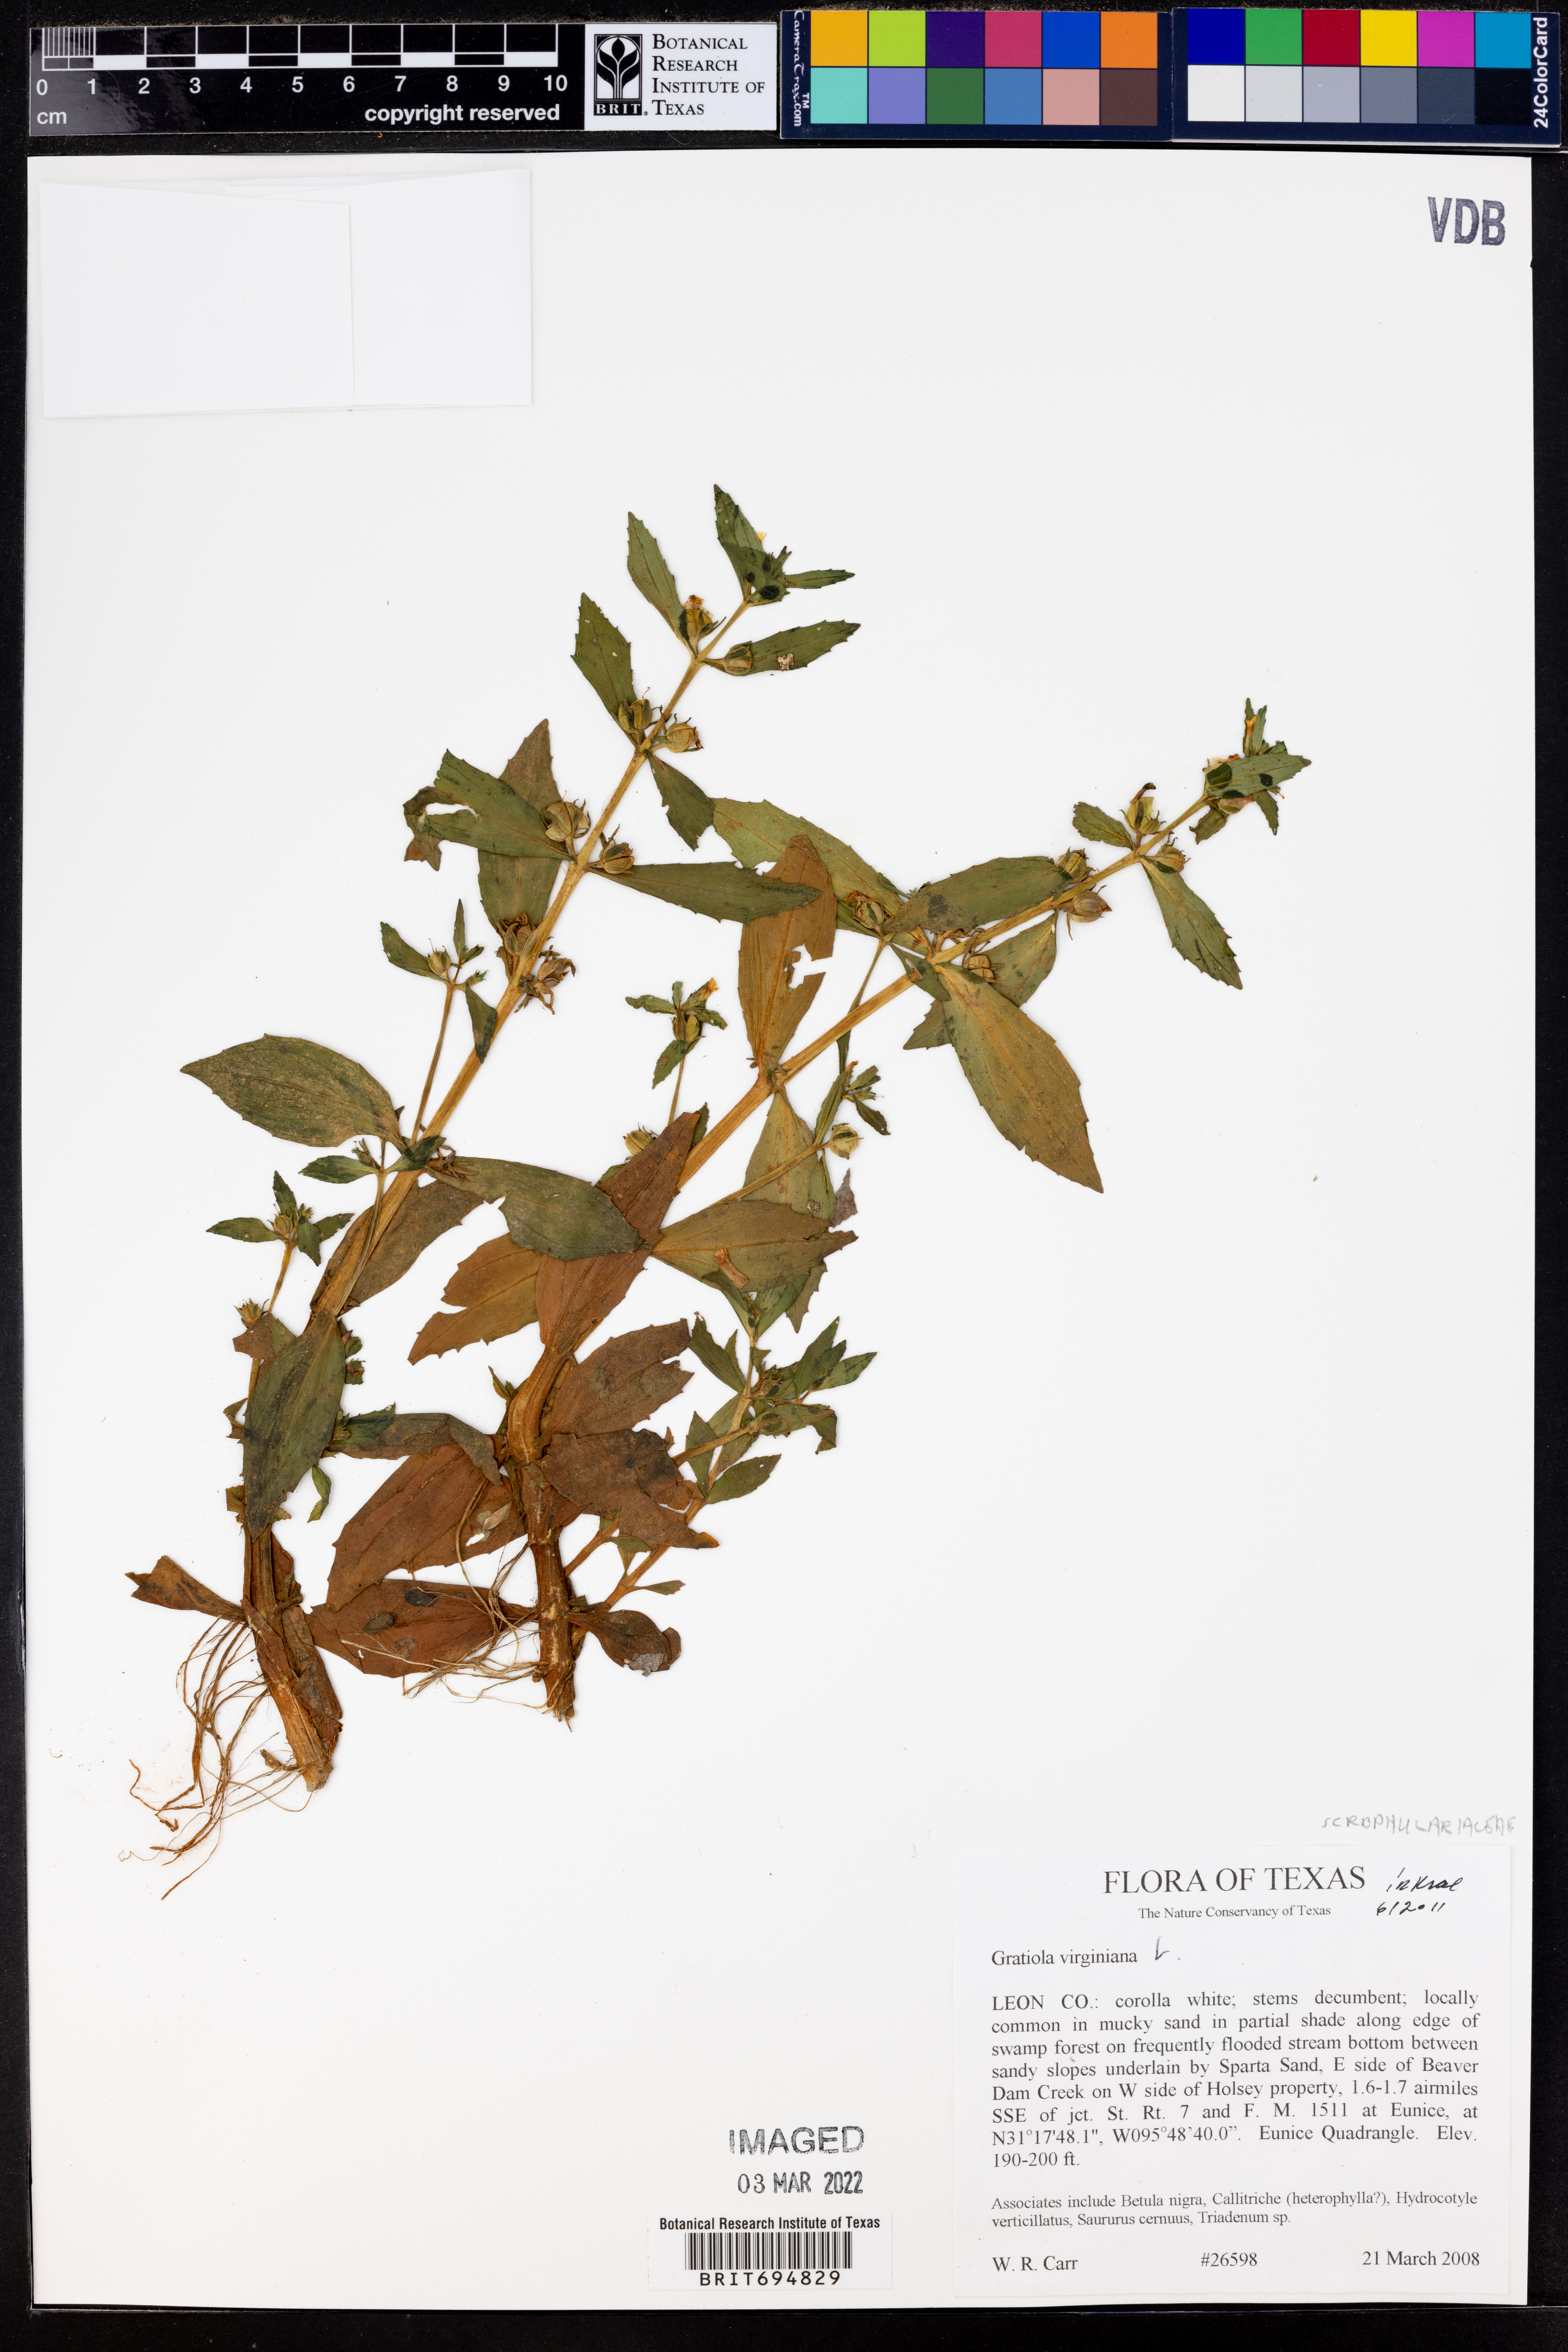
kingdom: Plantae
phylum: Tracheophyta
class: Magnoliopsida
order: Lamiales
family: Plantaginaceae
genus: Gratiola
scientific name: Gratiola virginiana
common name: Roundfruit hedgehyssop
